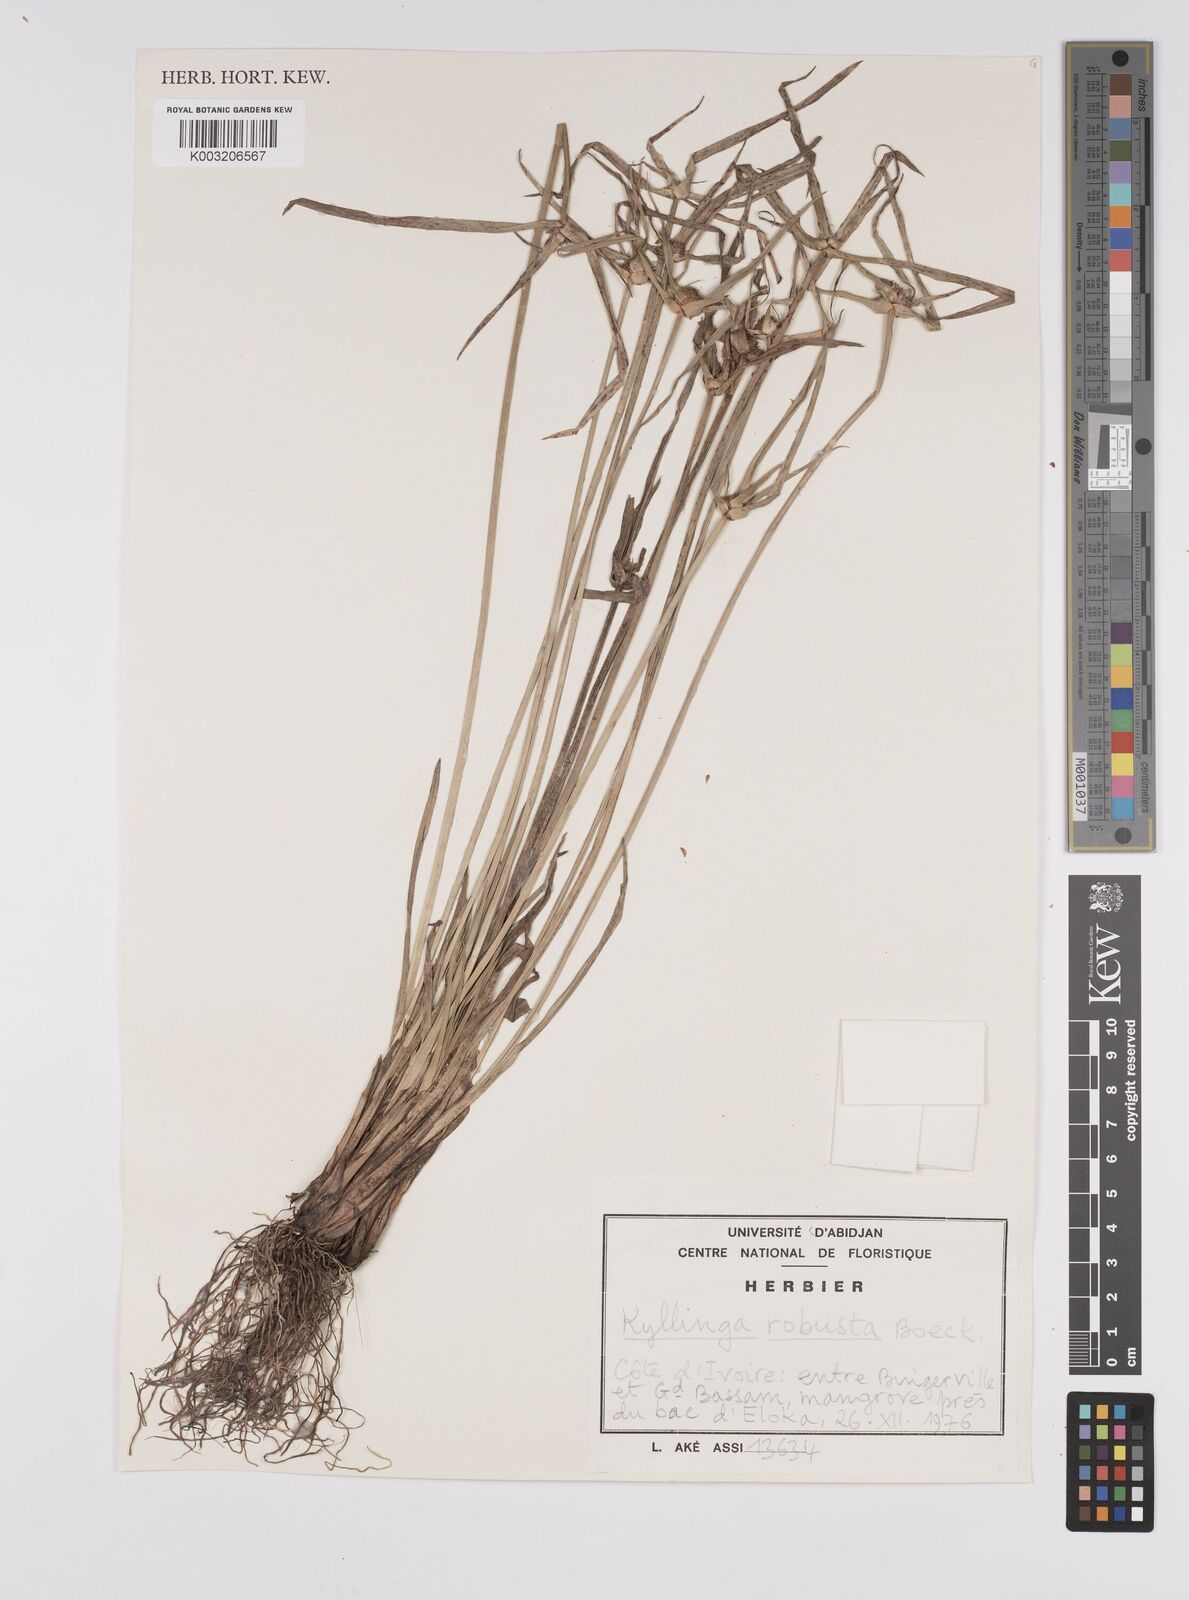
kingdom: Plantae
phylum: Tracheophyta
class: Liliopsida
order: Poales
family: Cyperaceae
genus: Cyperus
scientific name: Cyperus
